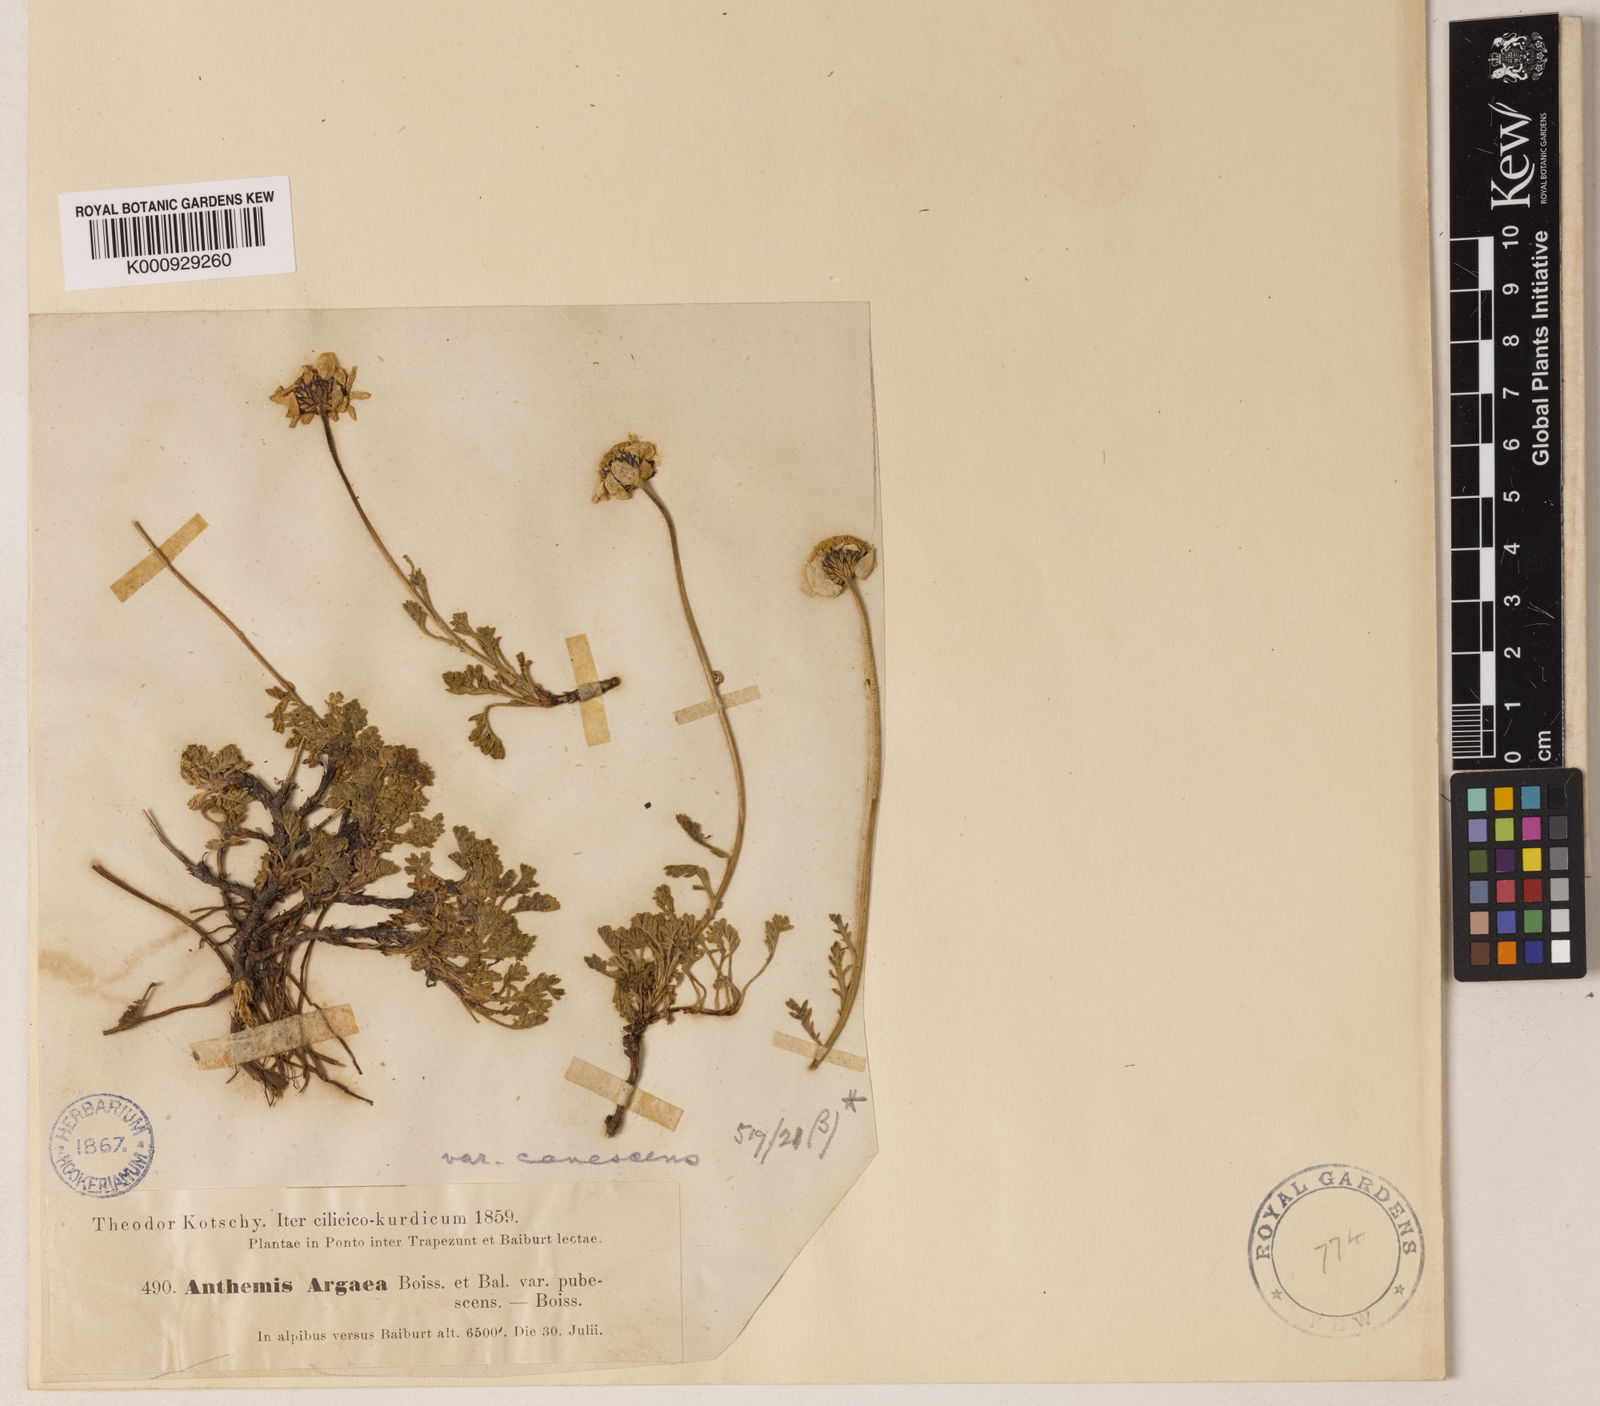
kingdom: Plantae
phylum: Tracheophyta
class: Magnoliopsida
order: Asterales
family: Asteraceae
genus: Anthemis
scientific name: Anthemis cretica
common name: Mountain dog-daisy
